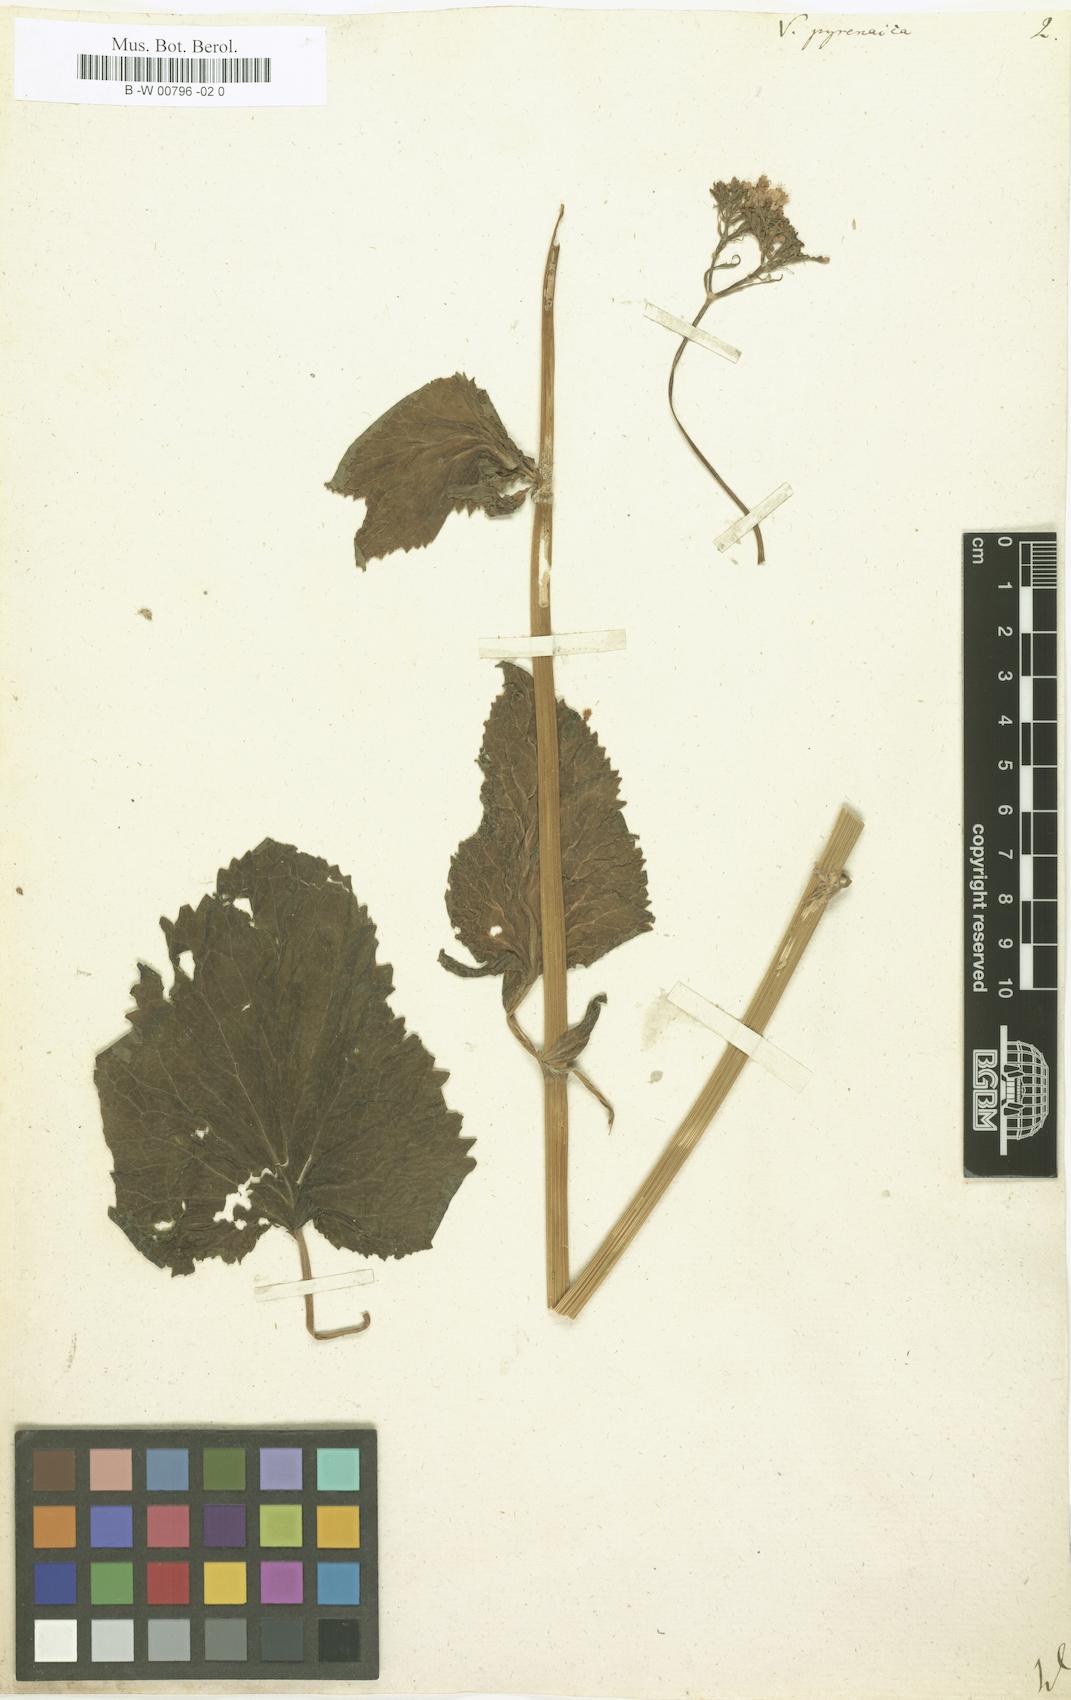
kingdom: Plantae
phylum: Tracheophyta
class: Magnoliopsida
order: Dipsacales
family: Caprifoliaceae
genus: Valeriana
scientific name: Valeriana pyrenaica
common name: Pyrenean valerian
